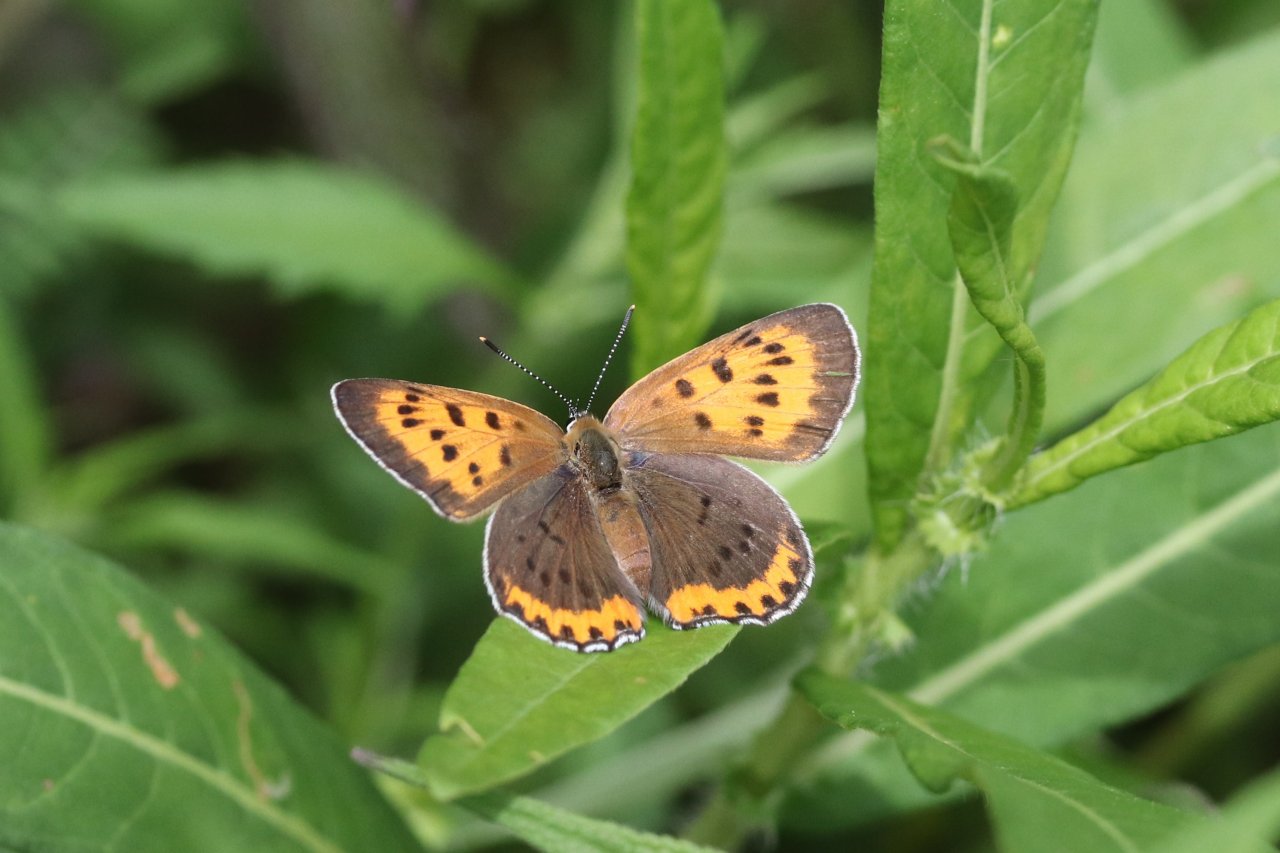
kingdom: Animalia
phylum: Arthropoda
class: Insecta
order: Lepidoptera
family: Sesiidae
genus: Sesia
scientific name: Sesia Lycaena hyllus
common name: Bronze Copper
